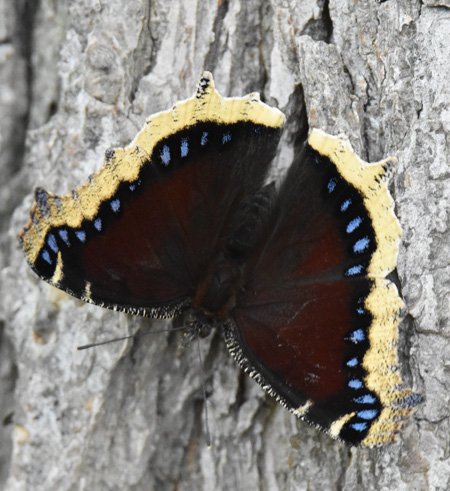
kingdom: Animalia
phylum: Arthropoda
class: Insecta
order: Lepidoptera
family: Nymphalidae
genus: Nymphalis
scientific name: Nymphalis antiopa
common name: Mourning Cloak
